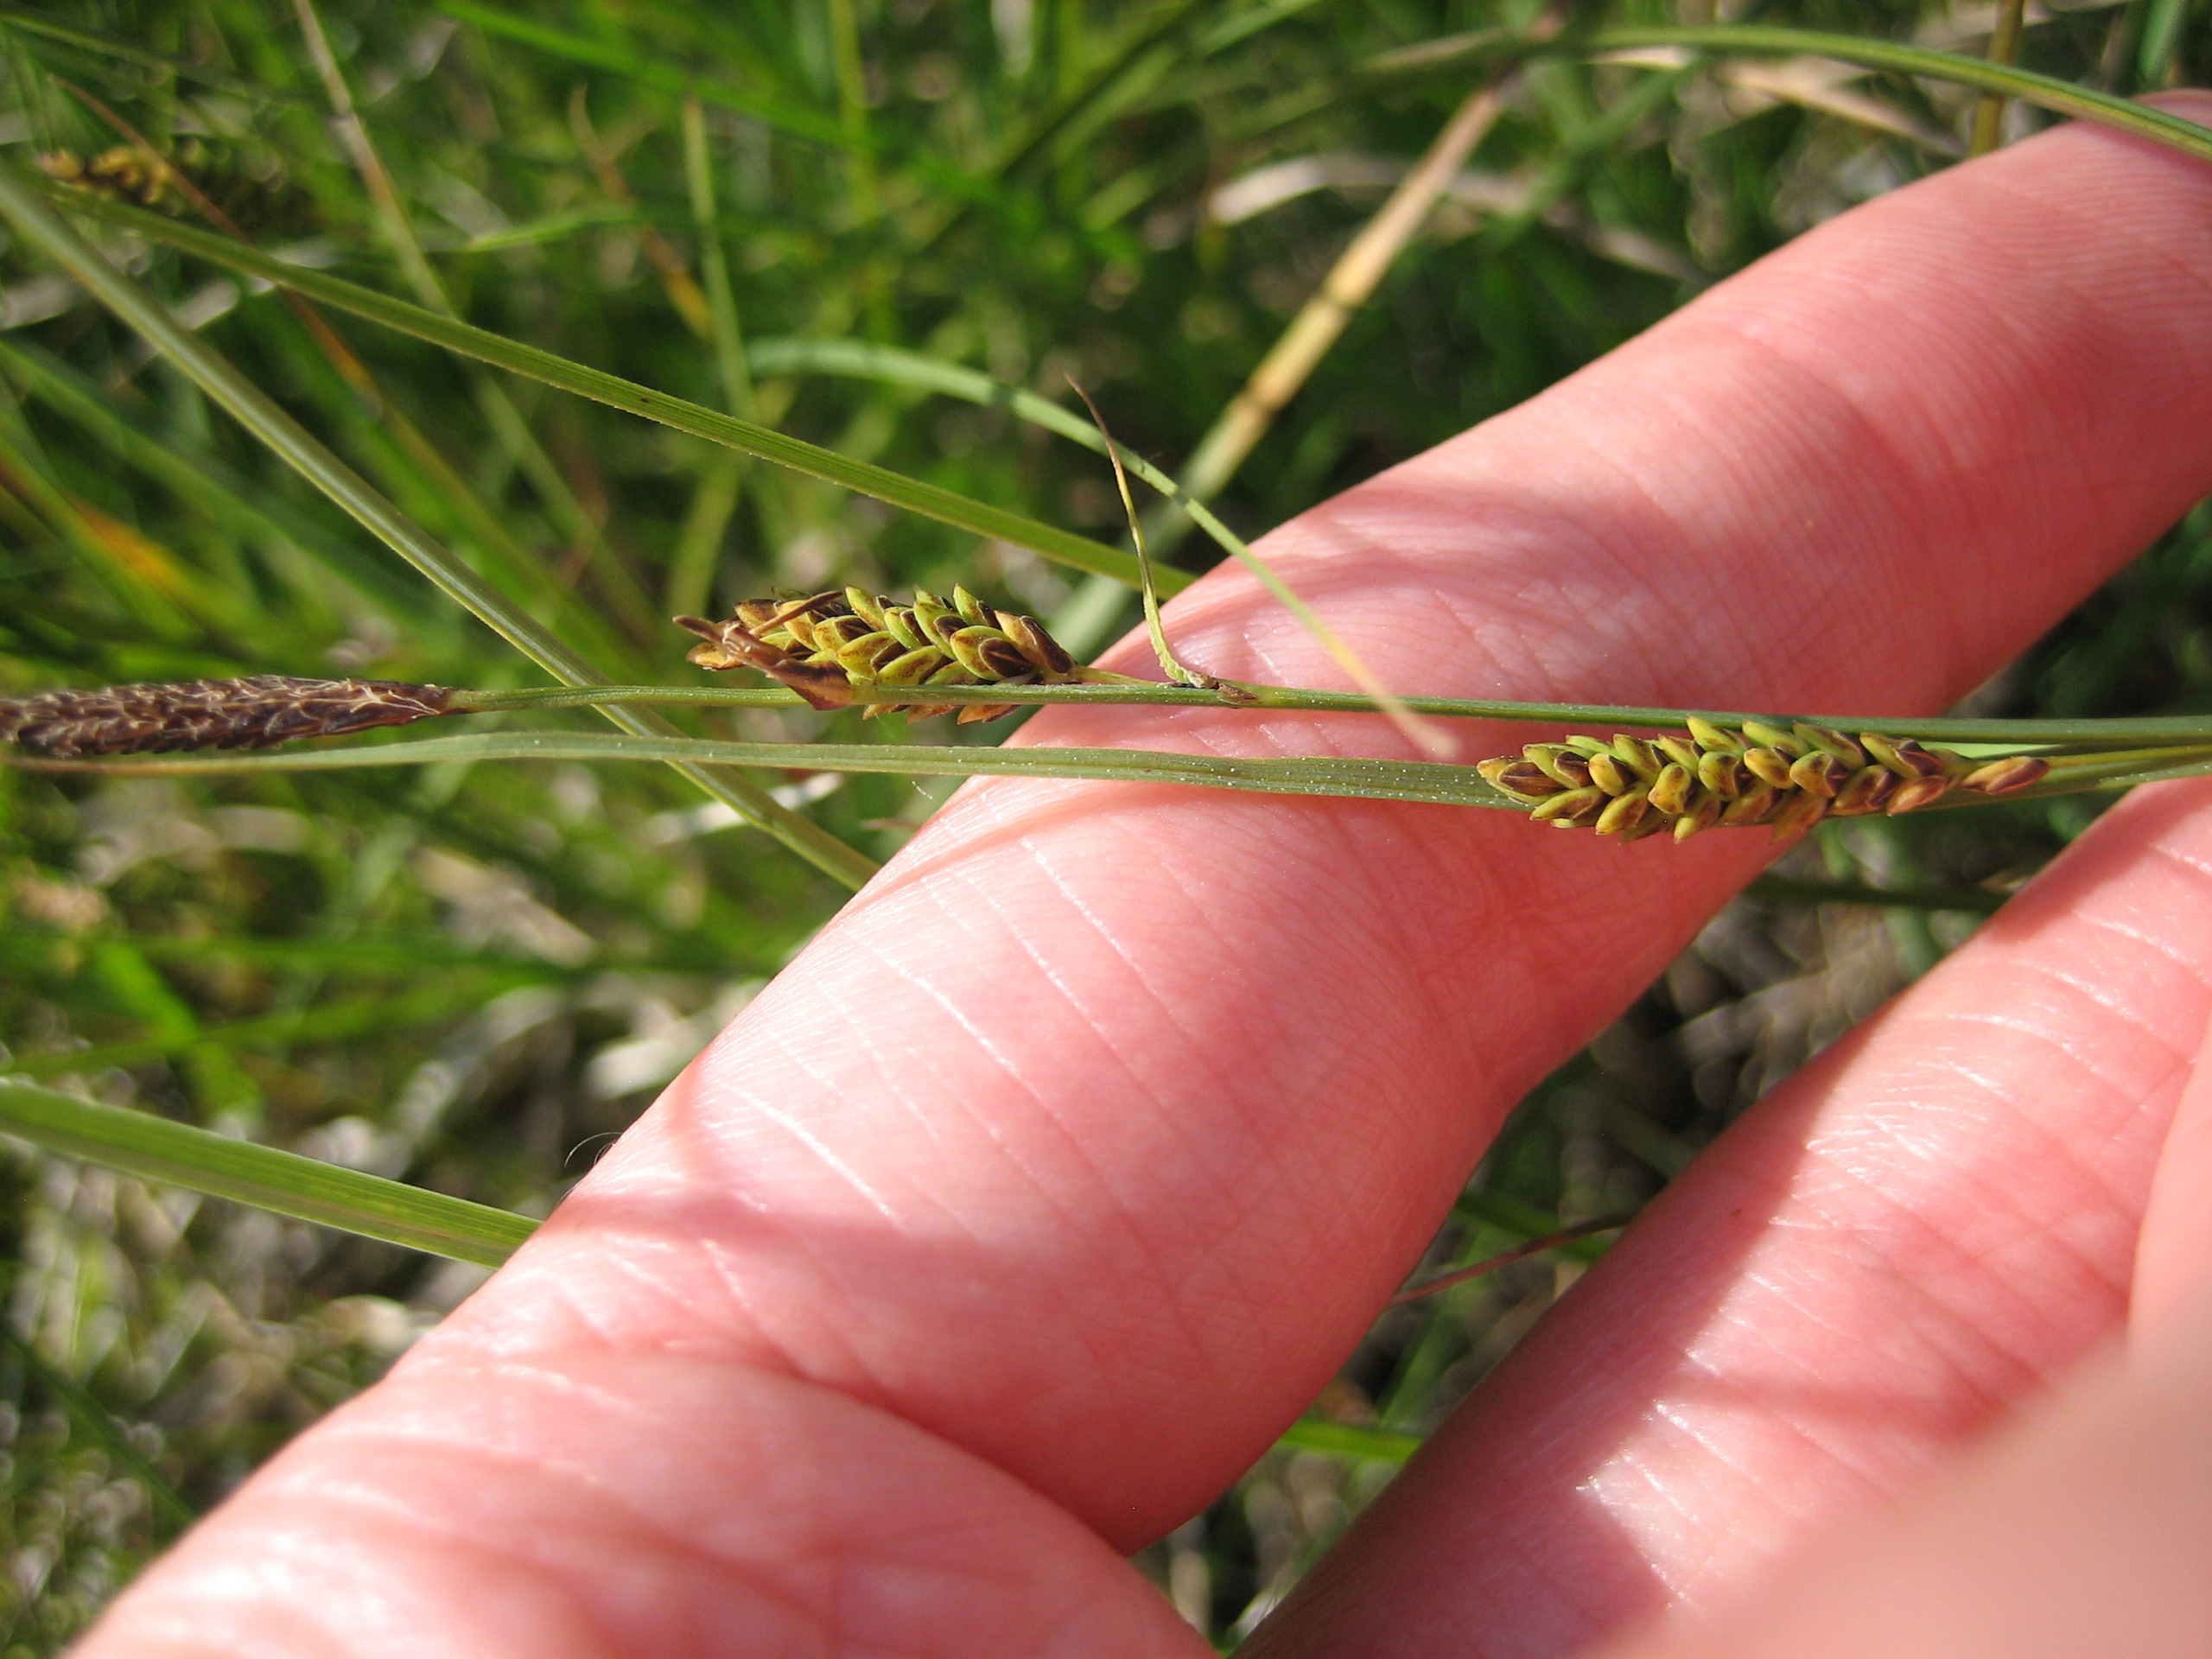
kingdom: Plantae
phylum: Tracheophyta
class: Liliopsida
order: Poales
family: Cyperaceae
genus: Carex
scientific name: Carex nigra
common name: Almindelig star
